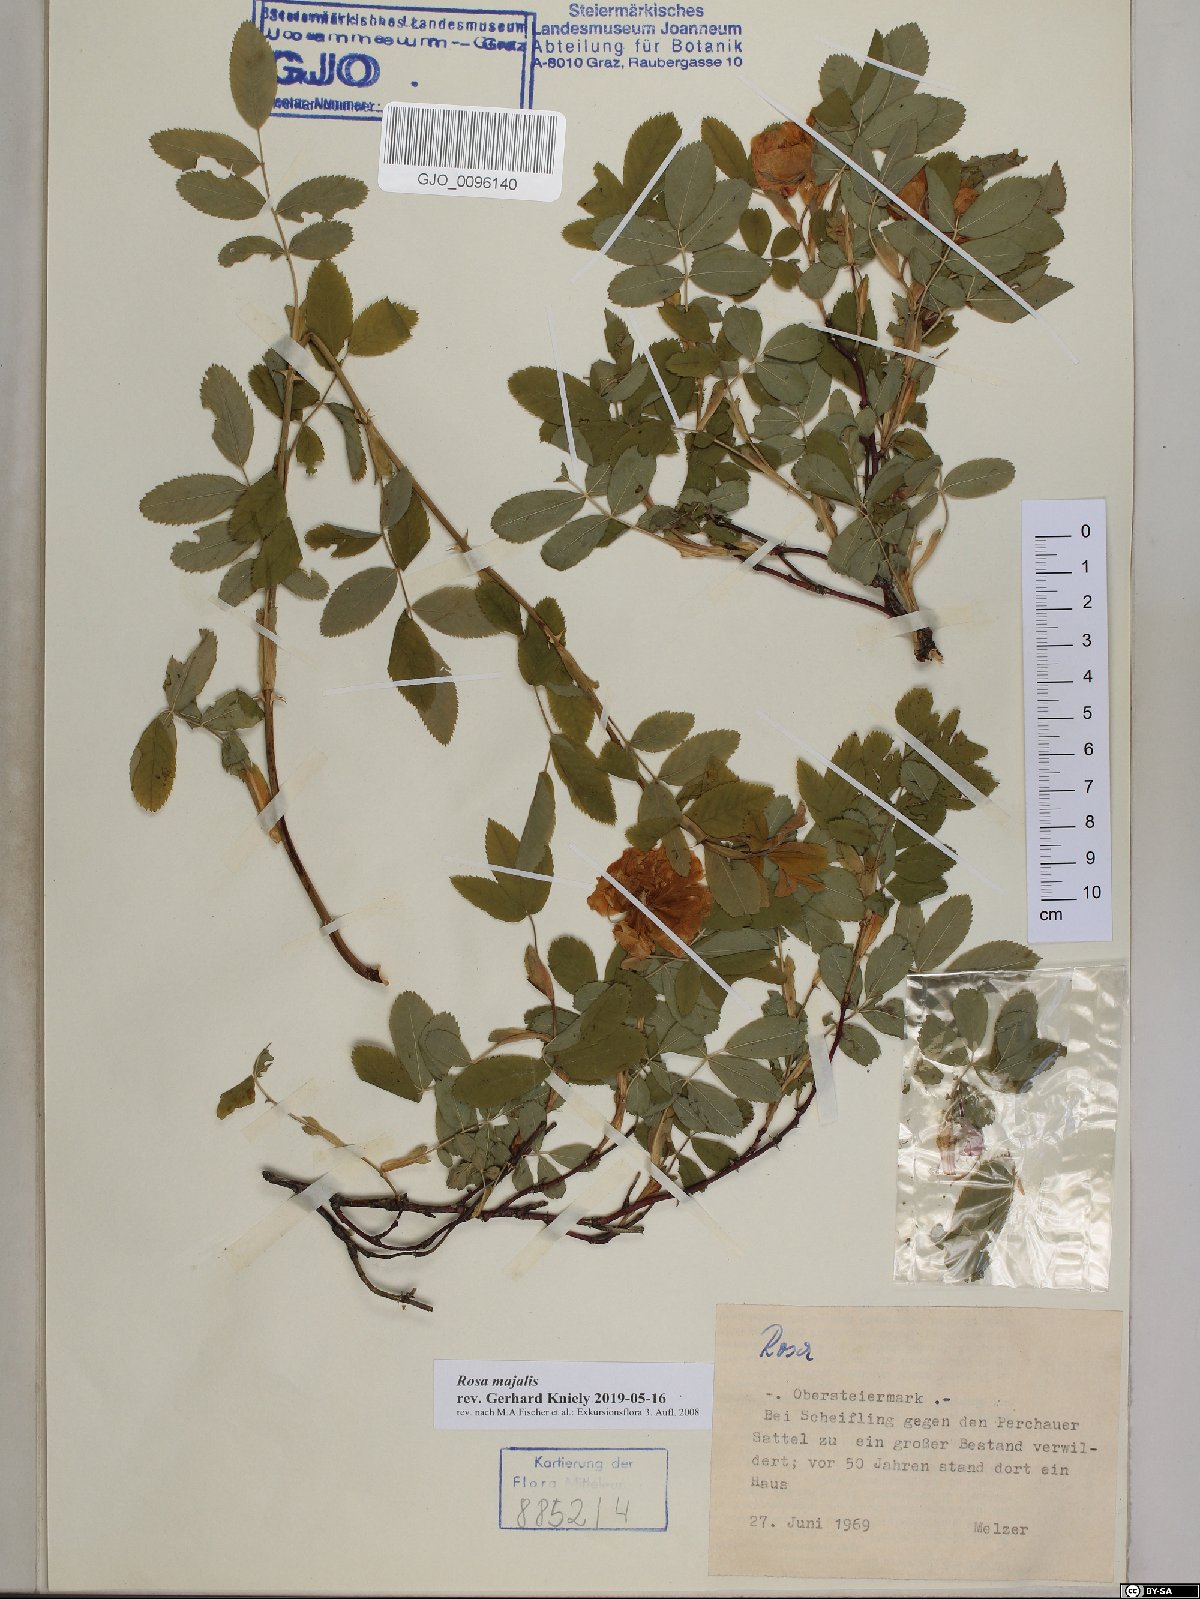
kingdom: Plantae
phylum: Tracheophyta
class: Magnoliopsida
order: Rosales
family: Rosaceae
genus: Rosa
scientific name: Rosa majalis
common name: Cinnamon rose
